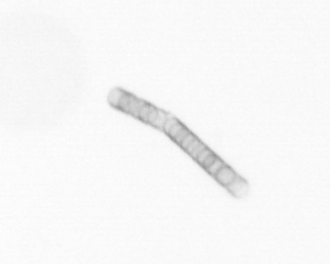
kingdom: Chromista
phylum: Ochrophyta
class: Bacillariophyceae
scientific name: Bacillariophyceae
